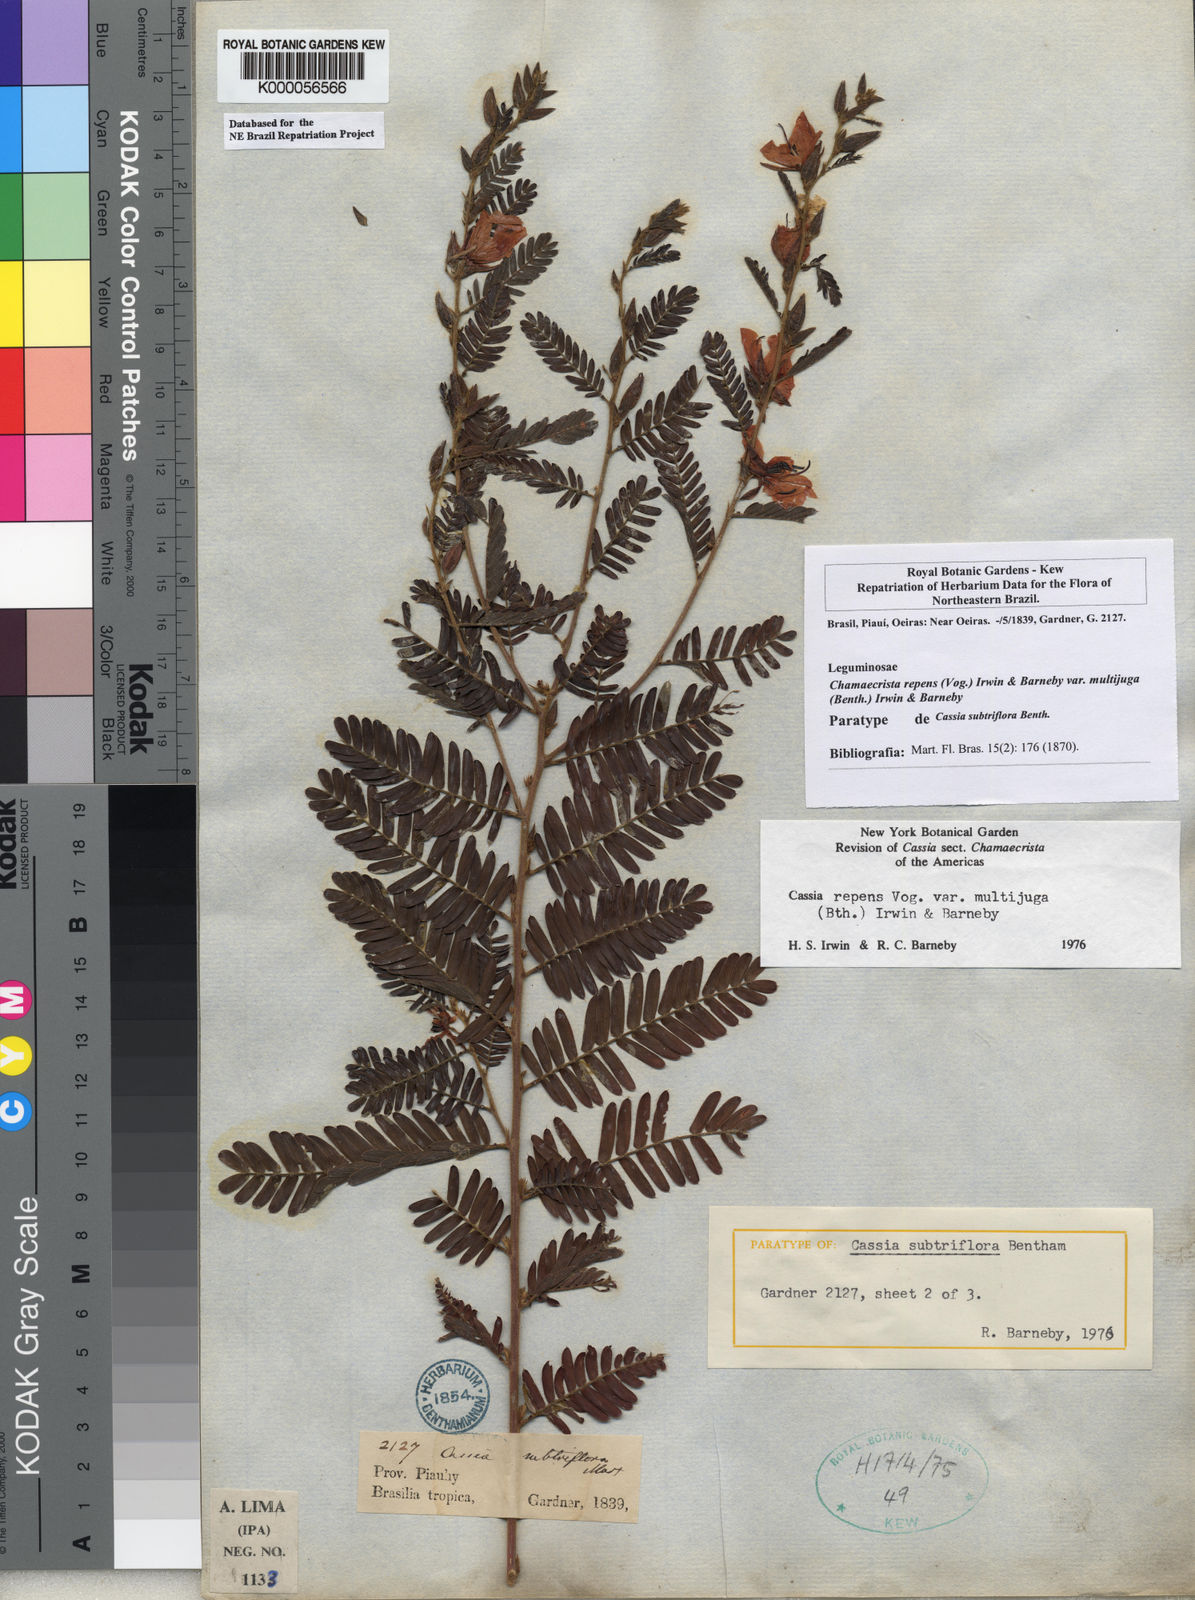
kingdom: Plantae
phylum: Tracheophyta
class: Magnoliopsida
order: Fabales
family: Fabaceae
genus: Chamaecrista
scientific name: Chamaecrista repens
